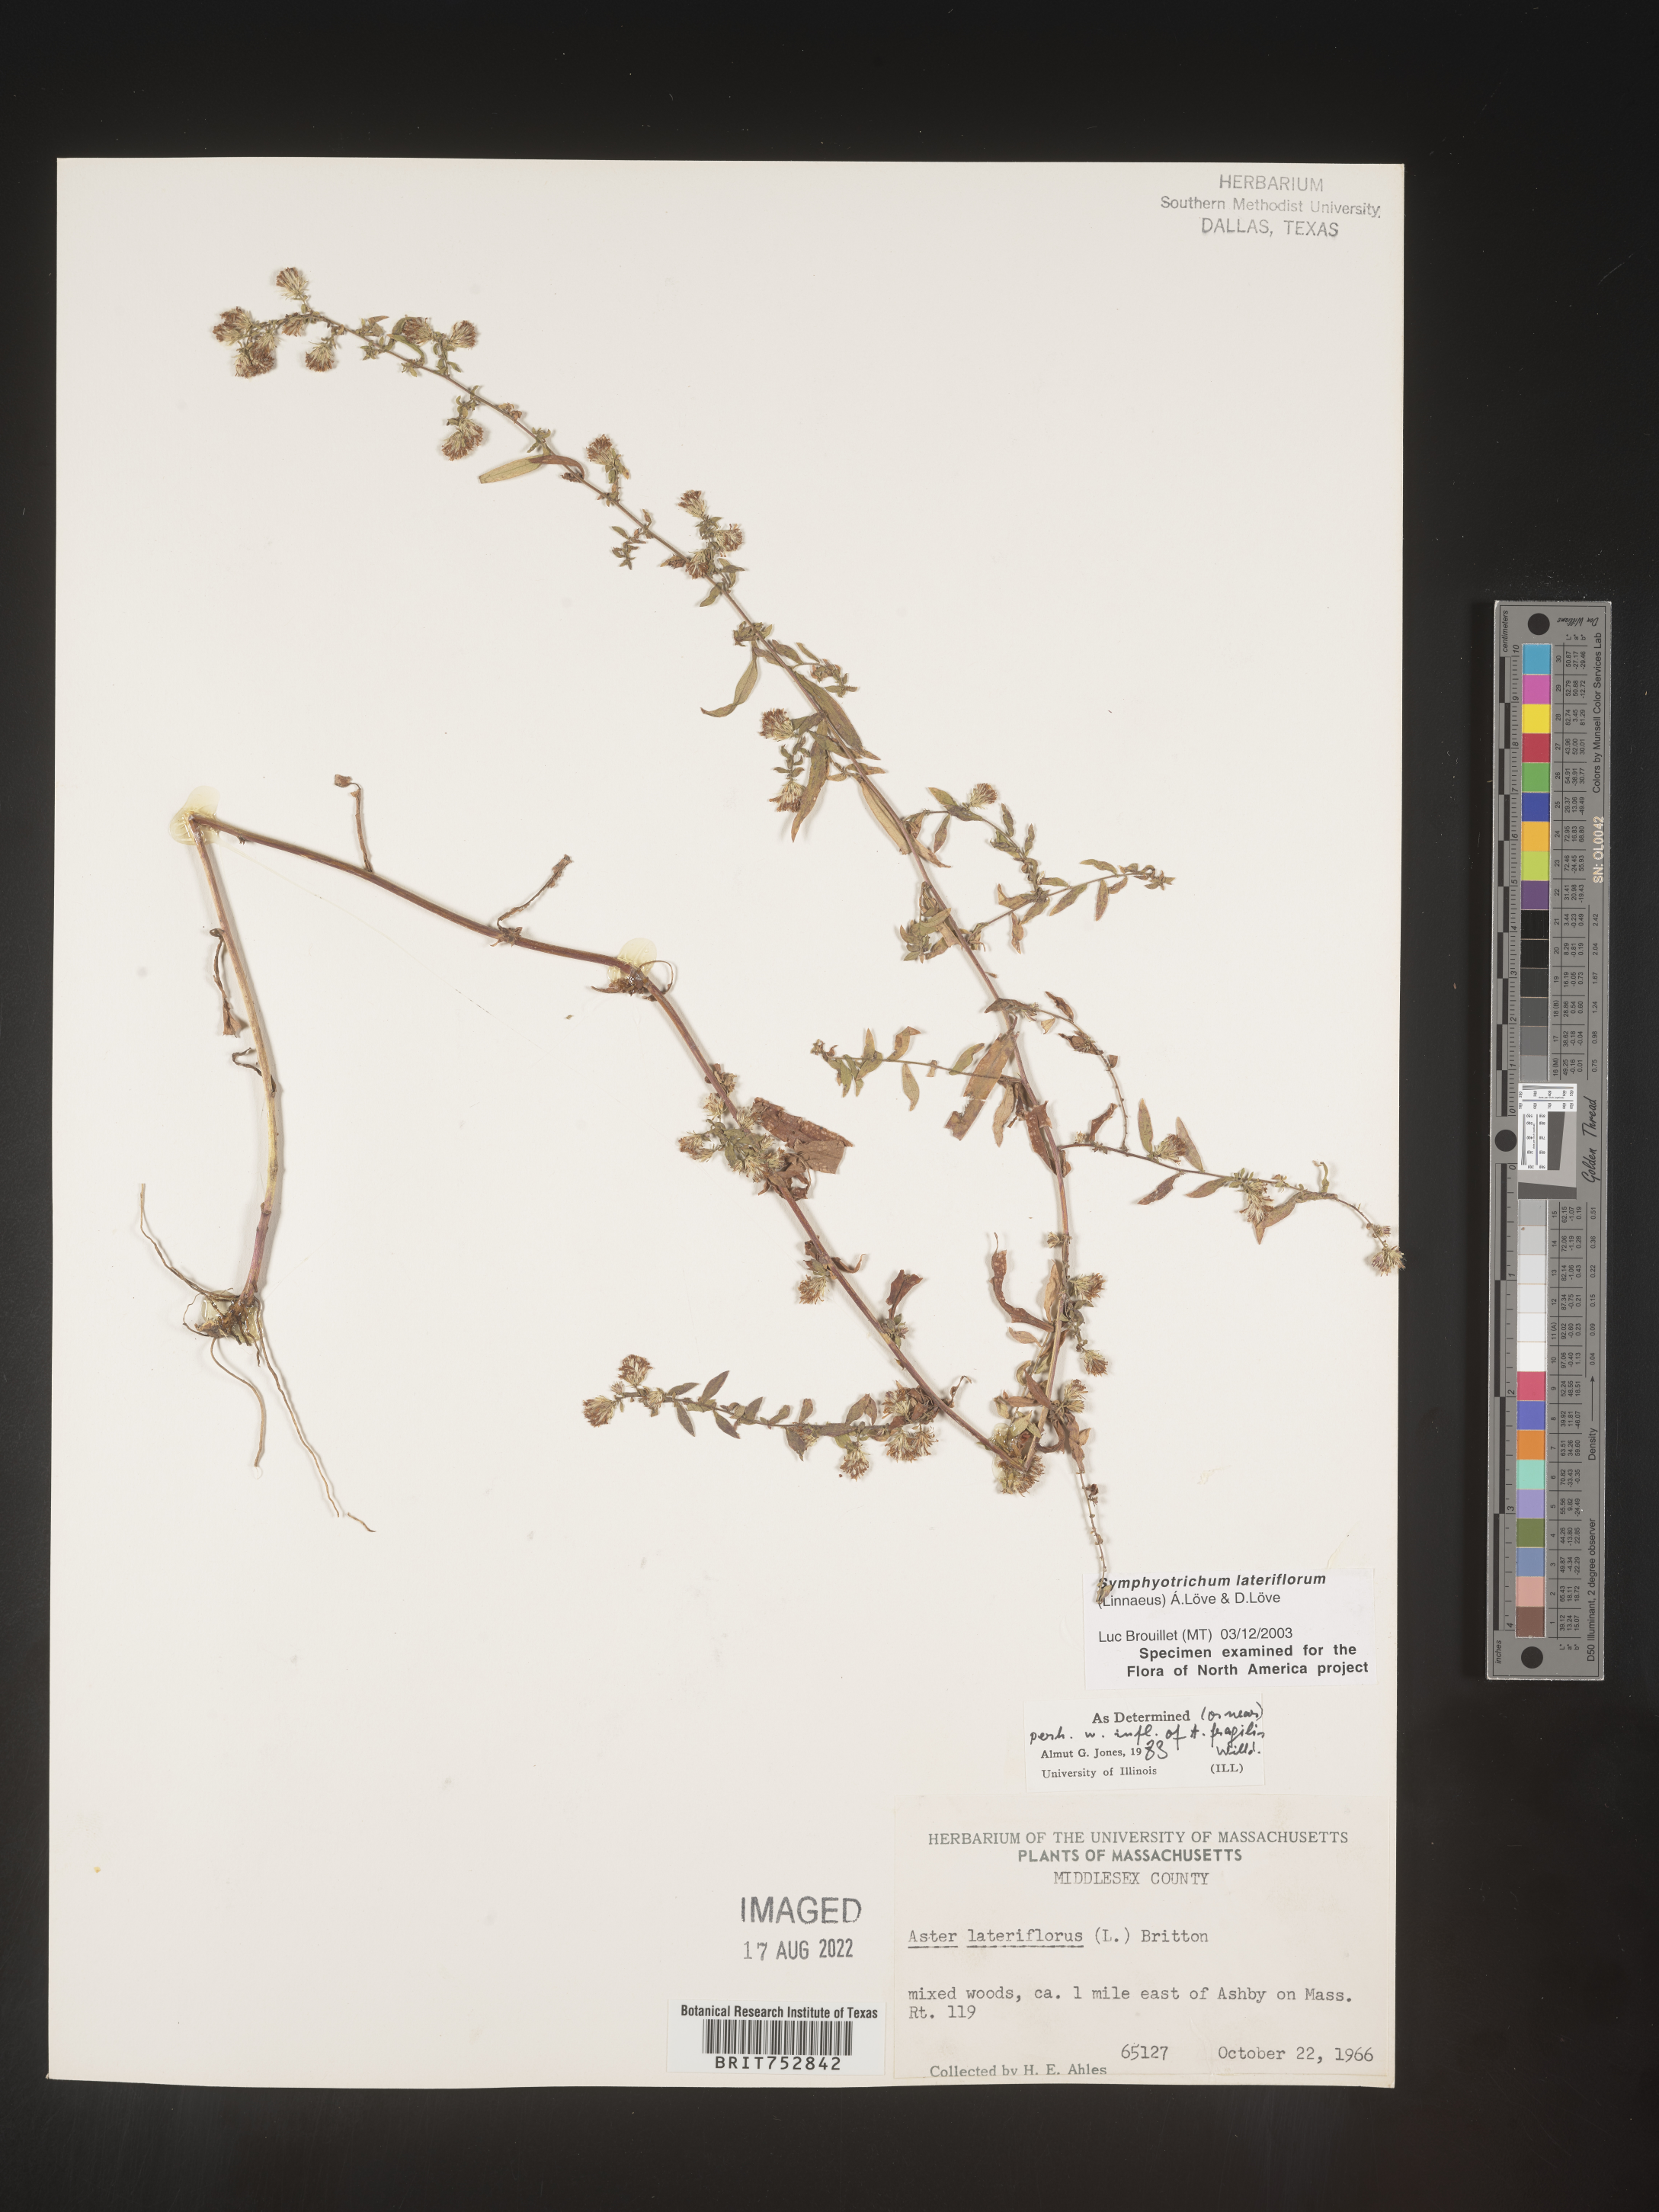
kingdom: Plantae
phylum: Tracheophyta
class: Magnoliopsida
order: Asterales
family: Asteraceae
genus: Symphyotrichum
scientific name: Symphyotrichum lateriflorum
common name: Calico aster
